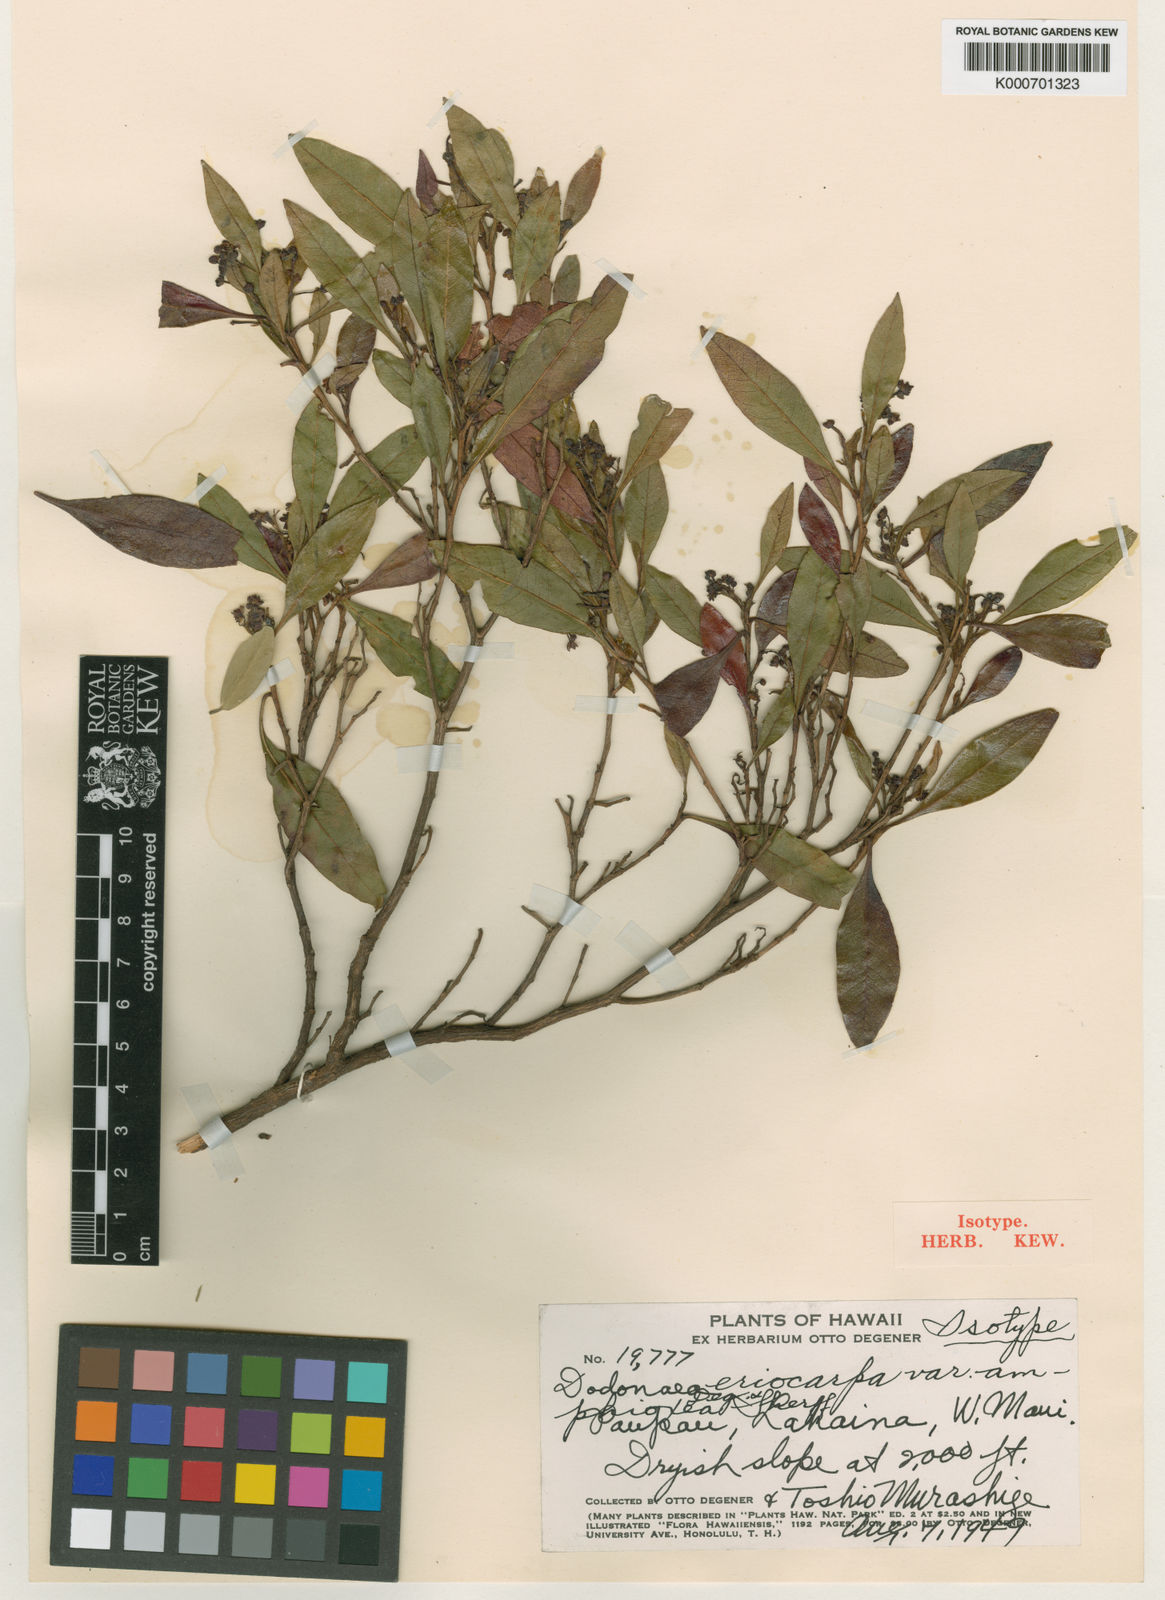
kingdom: Plantae
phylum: Tracheophyta
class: Magnoliopsida
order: Sapindales
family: Sapindaceae
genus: Dodonaea
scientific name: Dodonaea viscosa
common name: Hopbush
